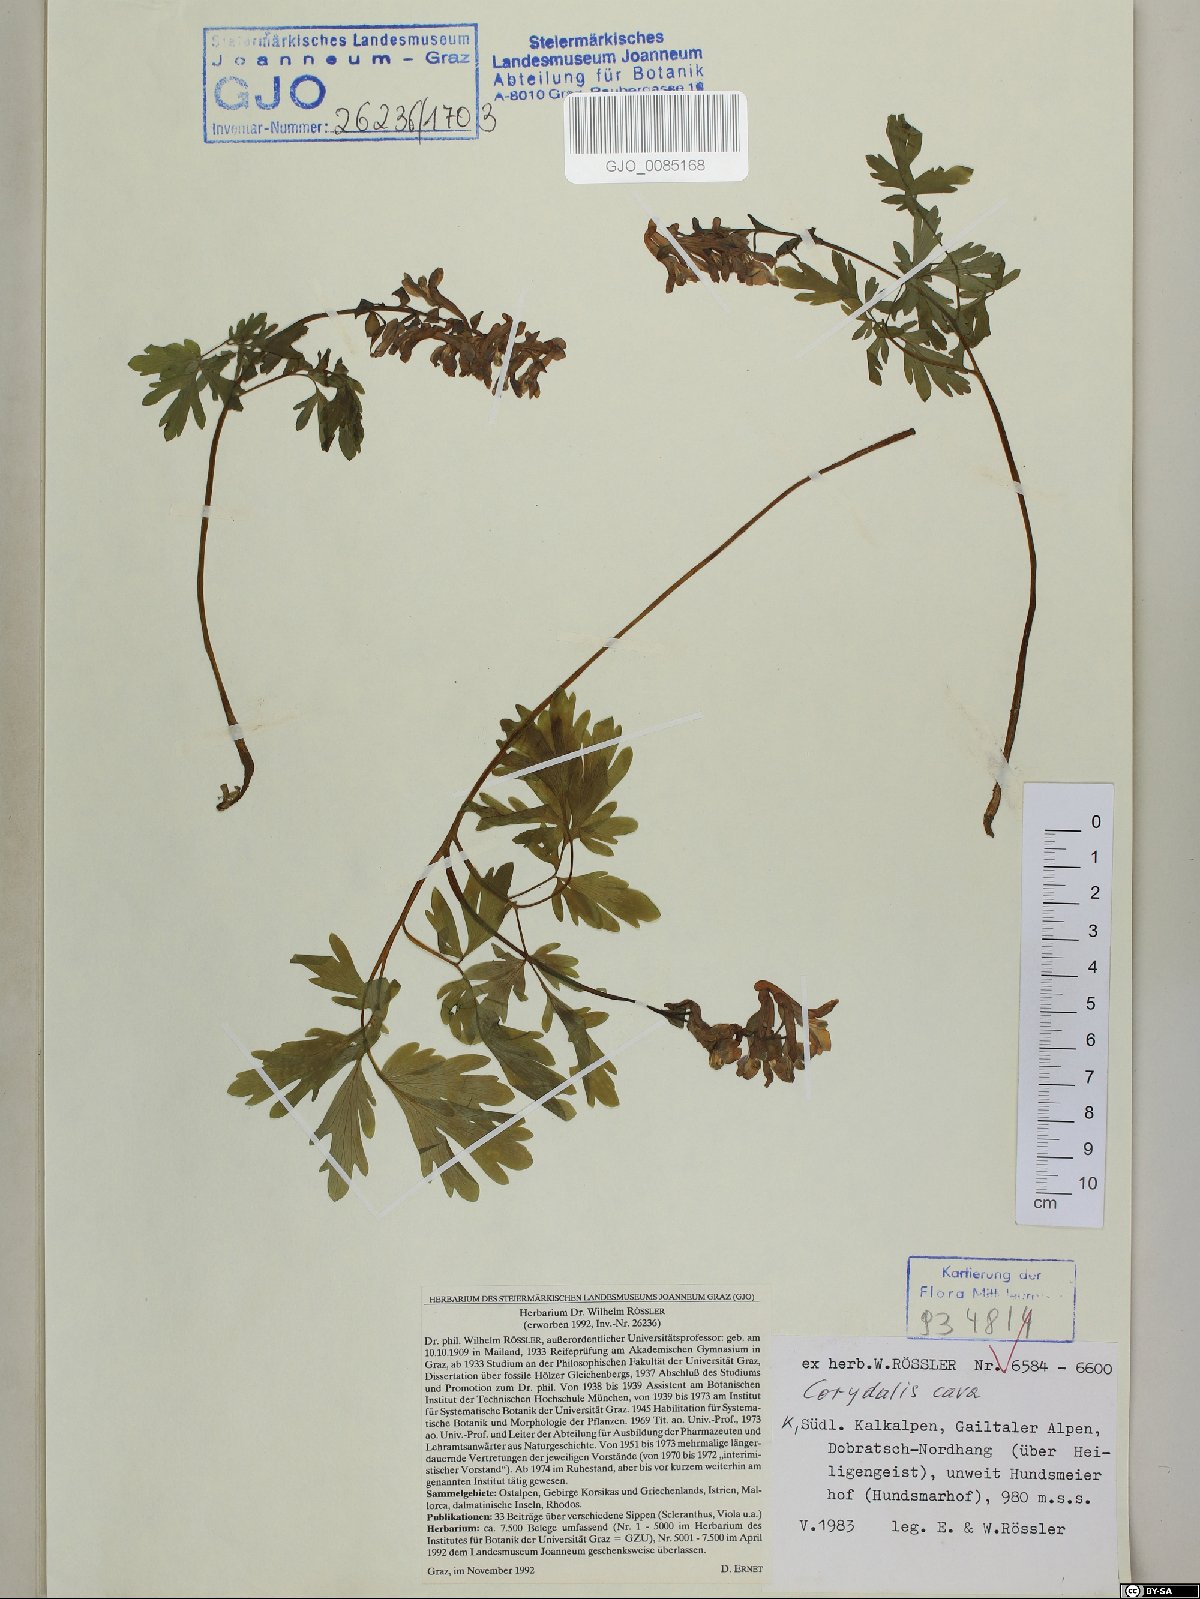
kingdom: Plantae
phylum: Tracheophyta
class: Magnoliopsida
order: Ranunculales
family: Papaveraceae
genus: Corydalis
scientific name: Corydalis cava
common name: Hollowroot
